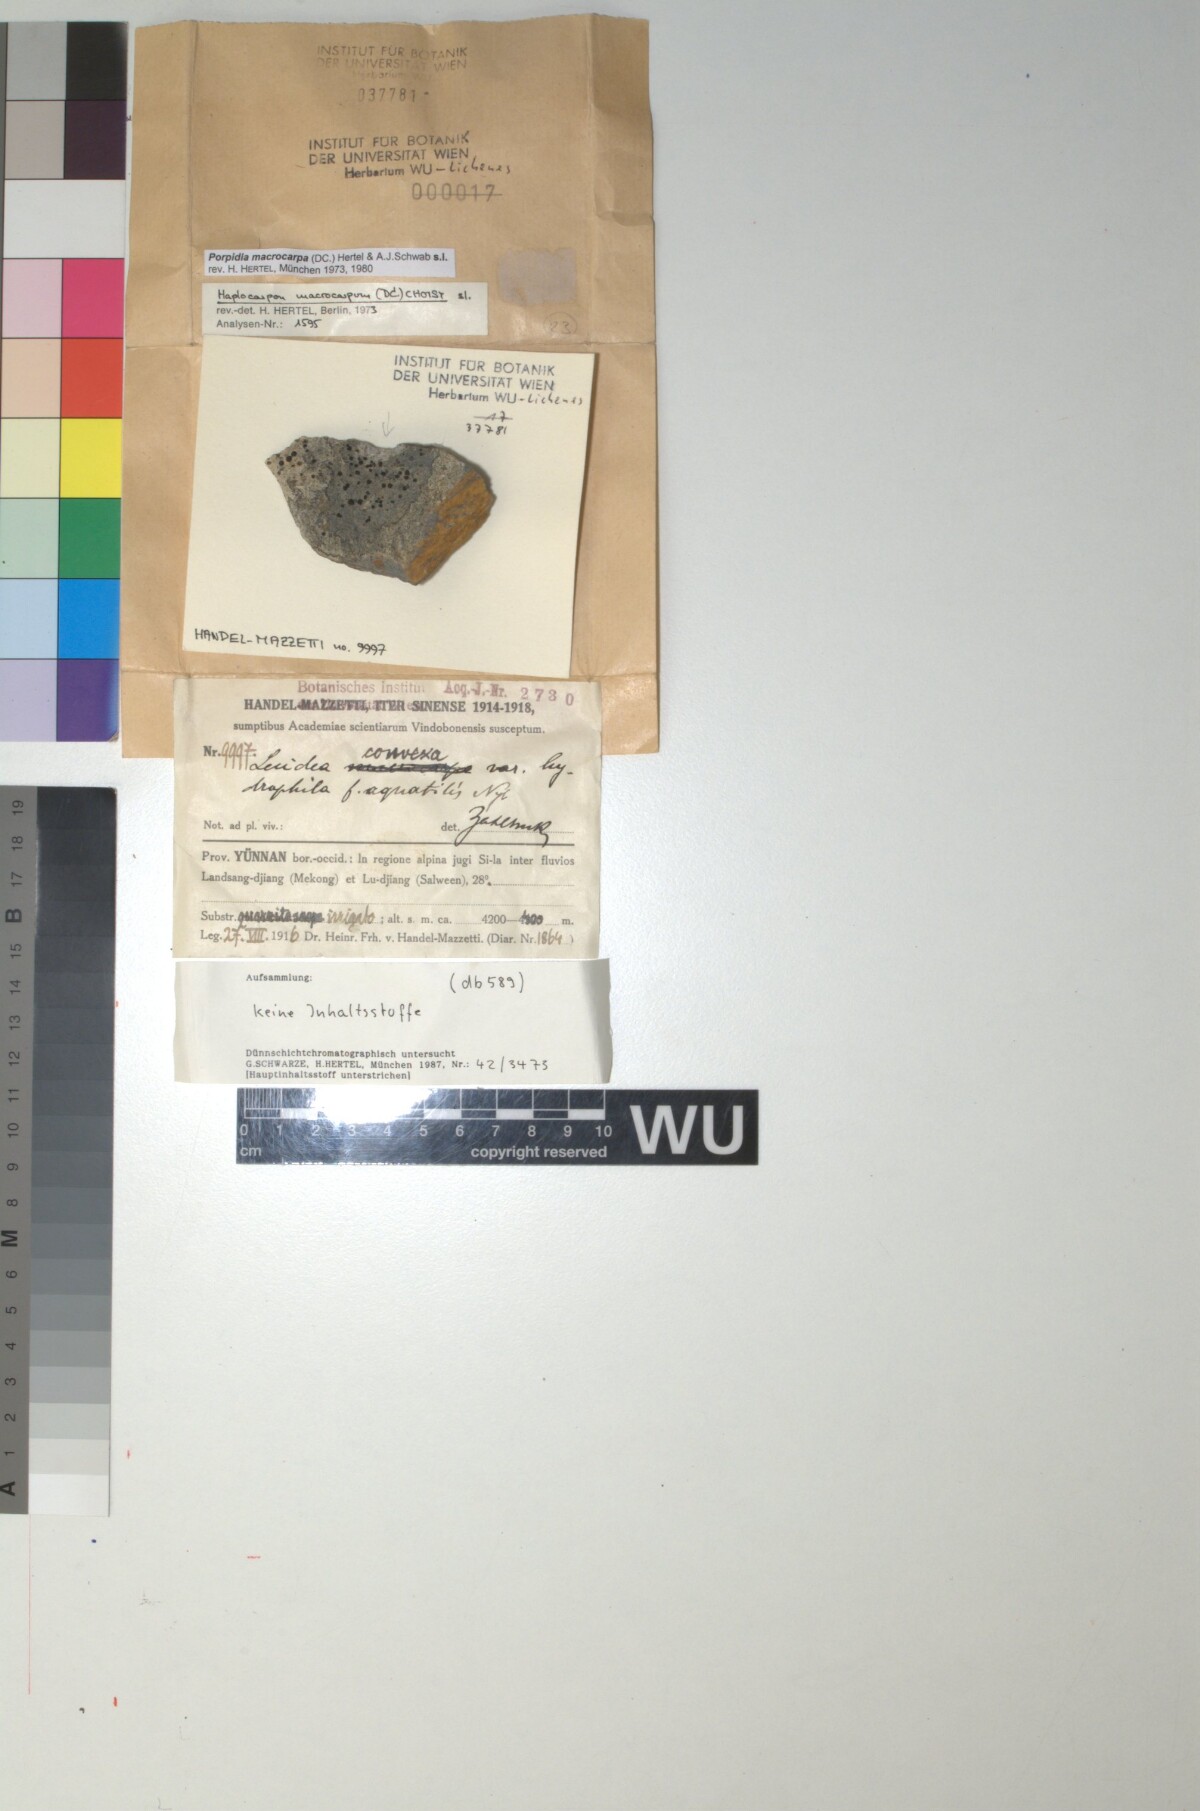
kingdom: Fungi
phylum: Ascomycota
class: Lecanoromycetes
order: Lecideales
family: Lecideaceae
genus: Porpidia
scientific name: Porpidia macrocarpa
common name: Common boulder lichen
